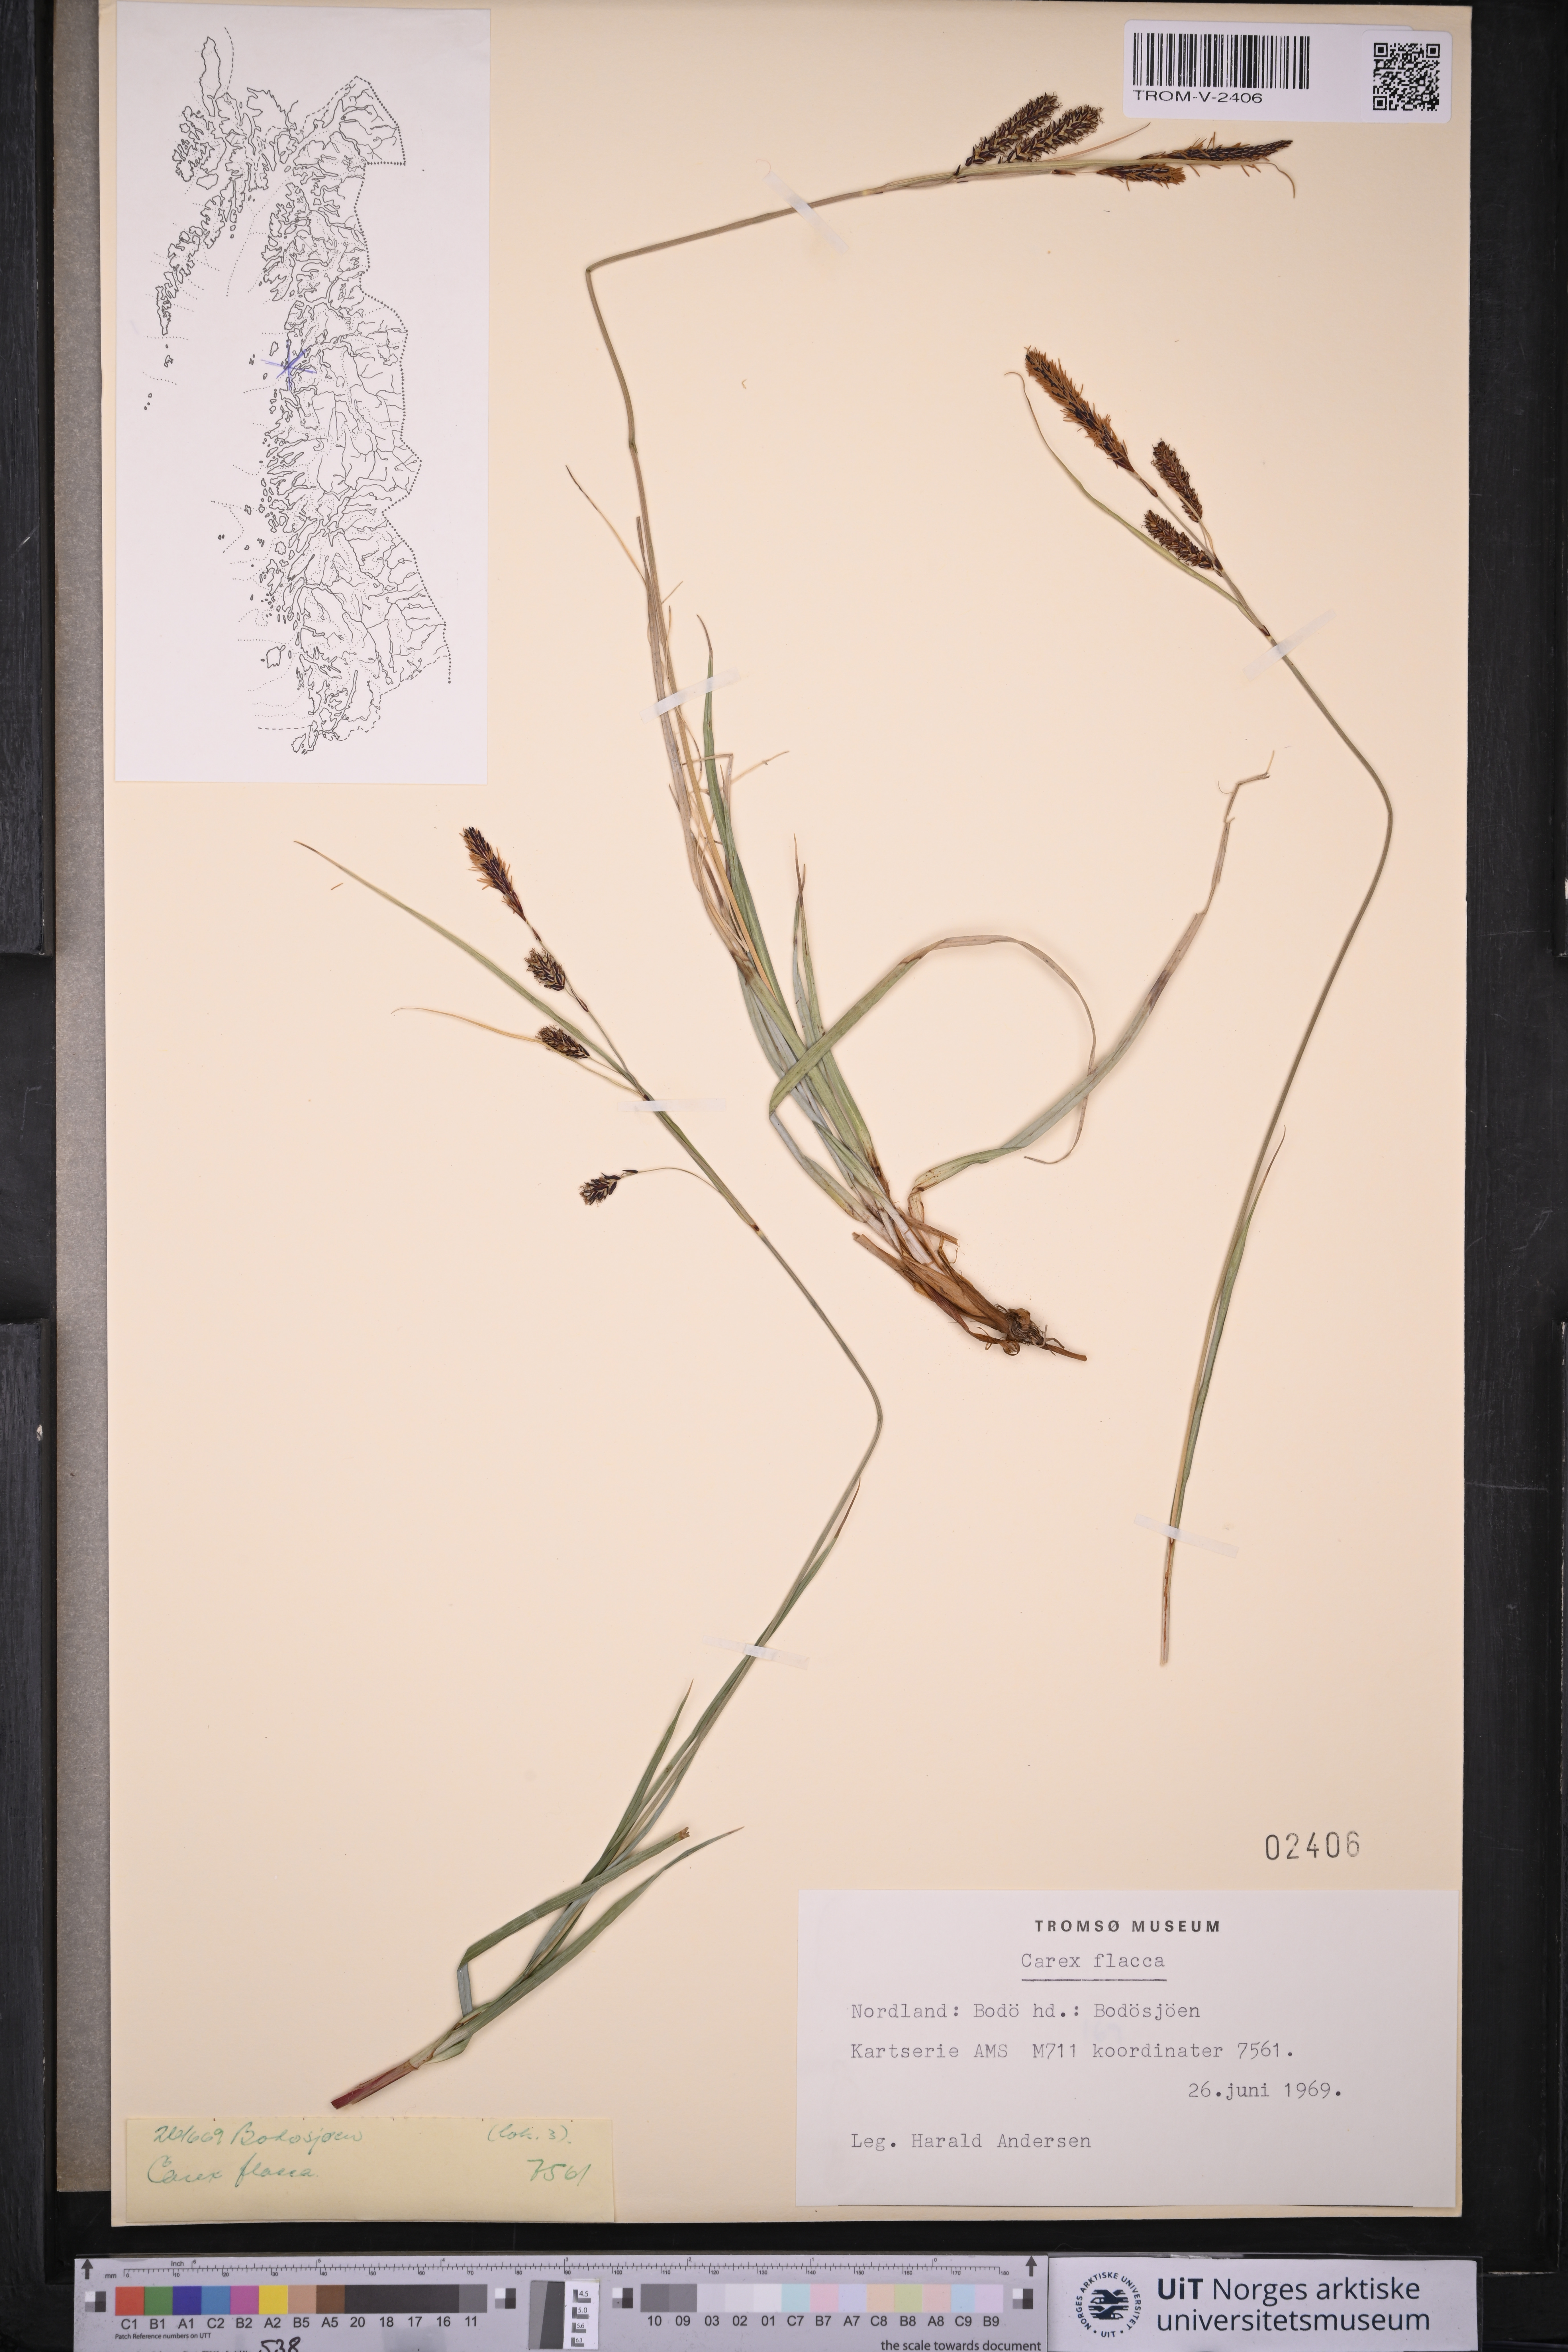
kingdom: Plantae
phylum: Tracheophyta
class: Liliopsida
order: Poales
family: Cyperaceae
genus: Carex
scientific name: Carex flacca
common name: Glaucous sedge
